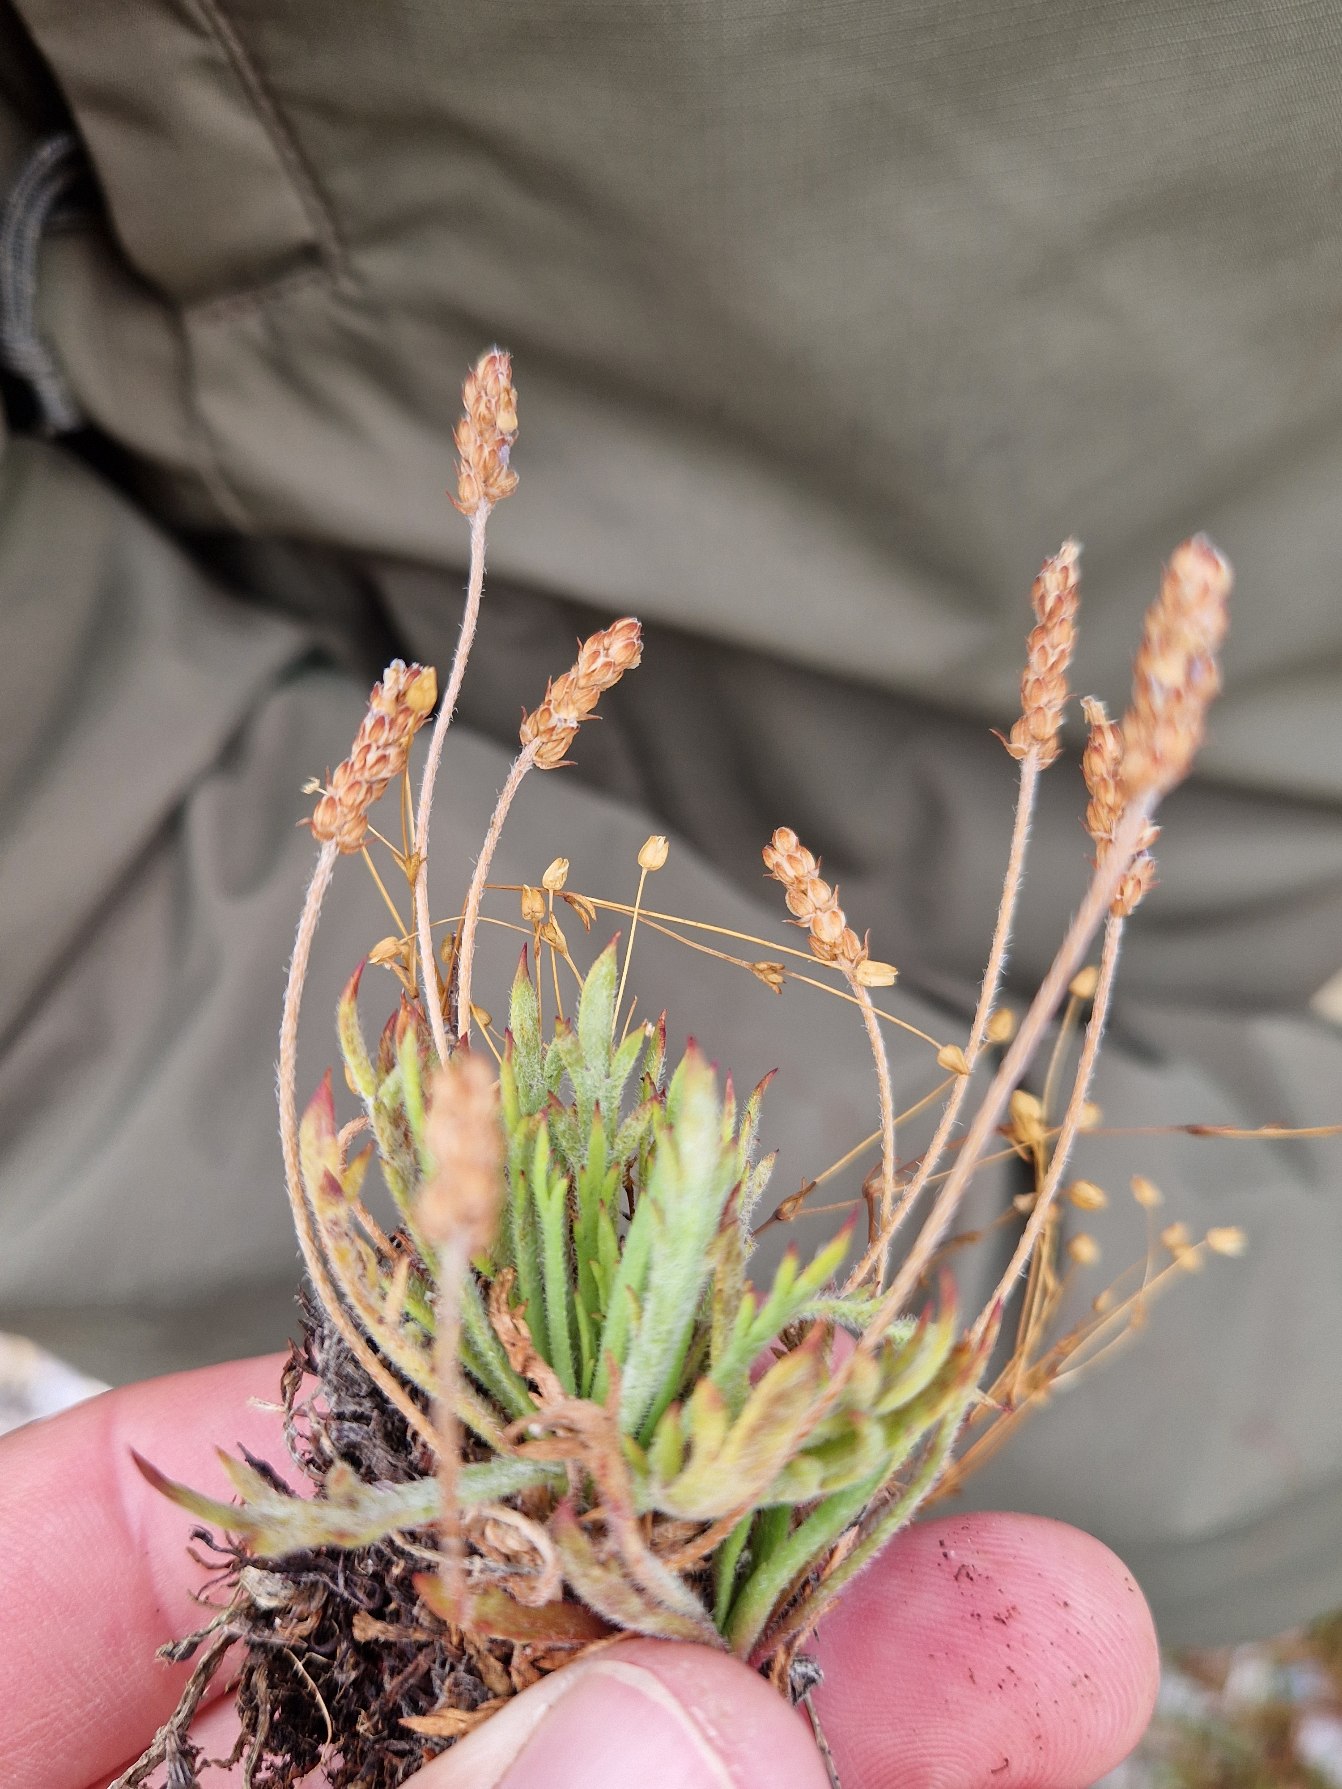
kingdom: Plantae
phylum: Tracheophyta
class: Magnoliopsida
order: Lamiales
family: Plantaginaceae
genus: Plantago
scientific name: Plantago coronopus
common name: Fliget vejbred
